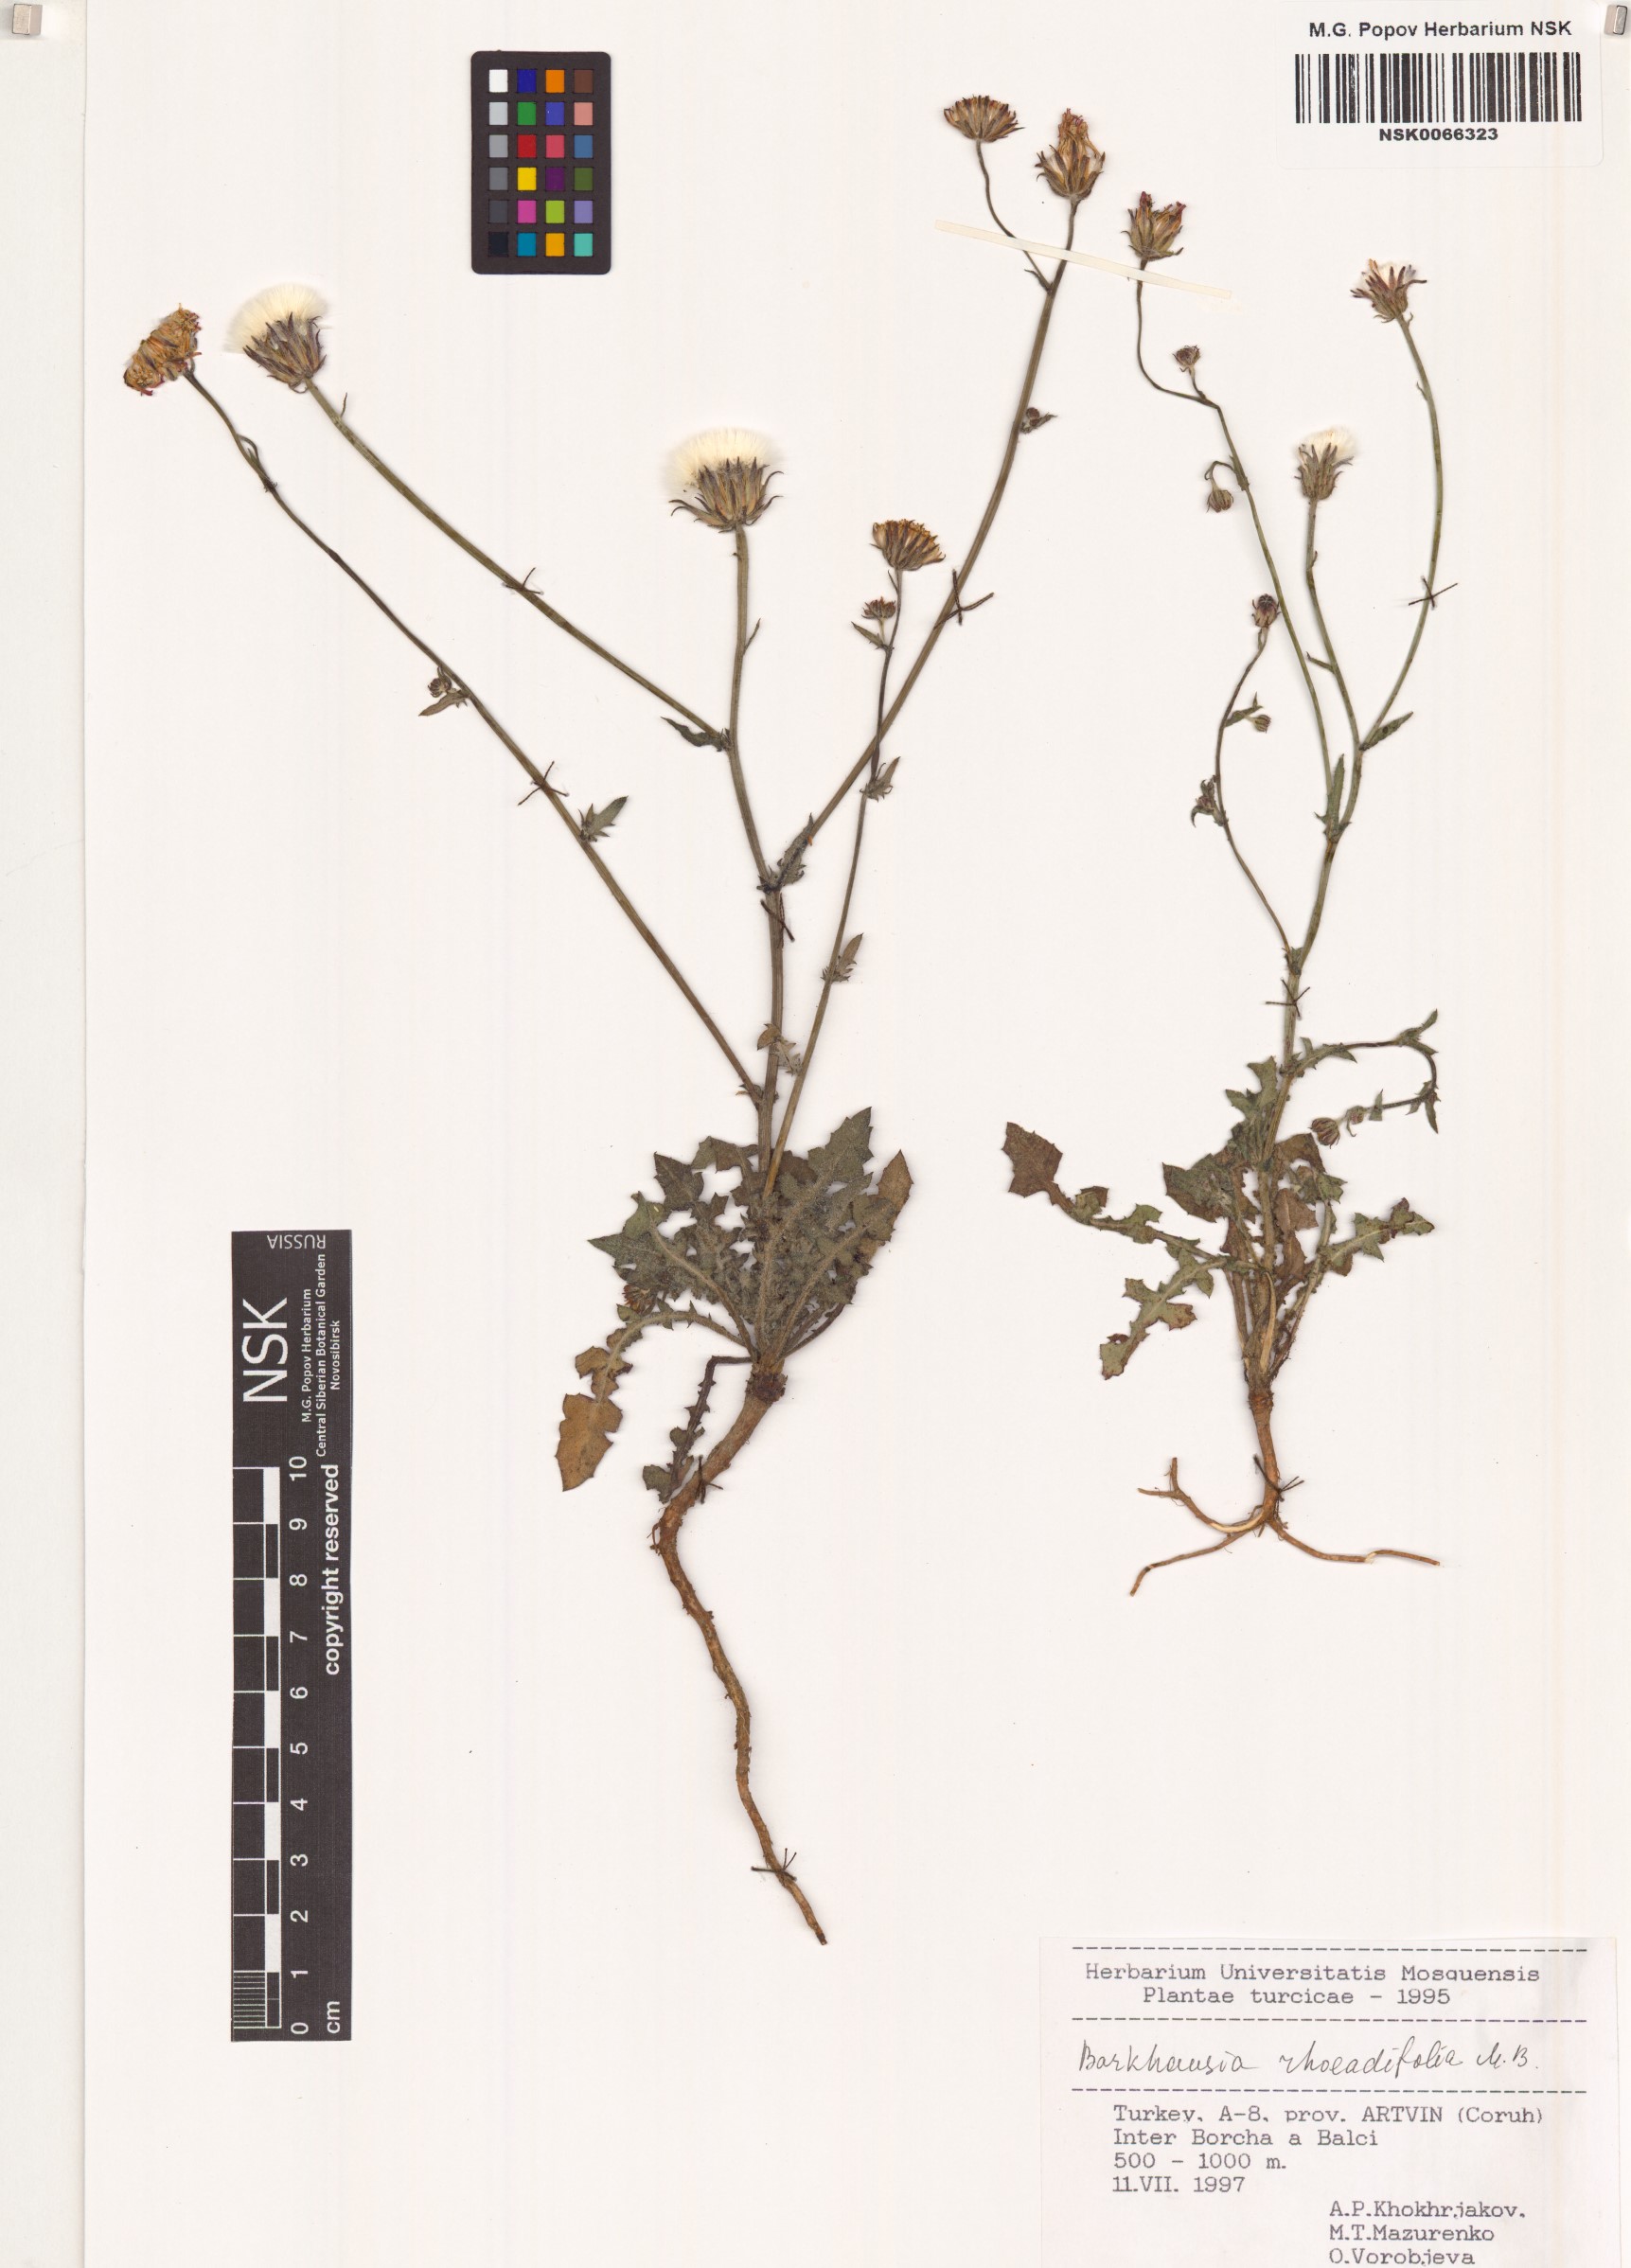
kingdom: Plantae
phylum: Tracheophyta
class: Magnoliopsida
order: Asterales
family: Asteraceae
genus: Crepis
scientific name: Crepis foetida
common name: Stinking hawk's-beard
